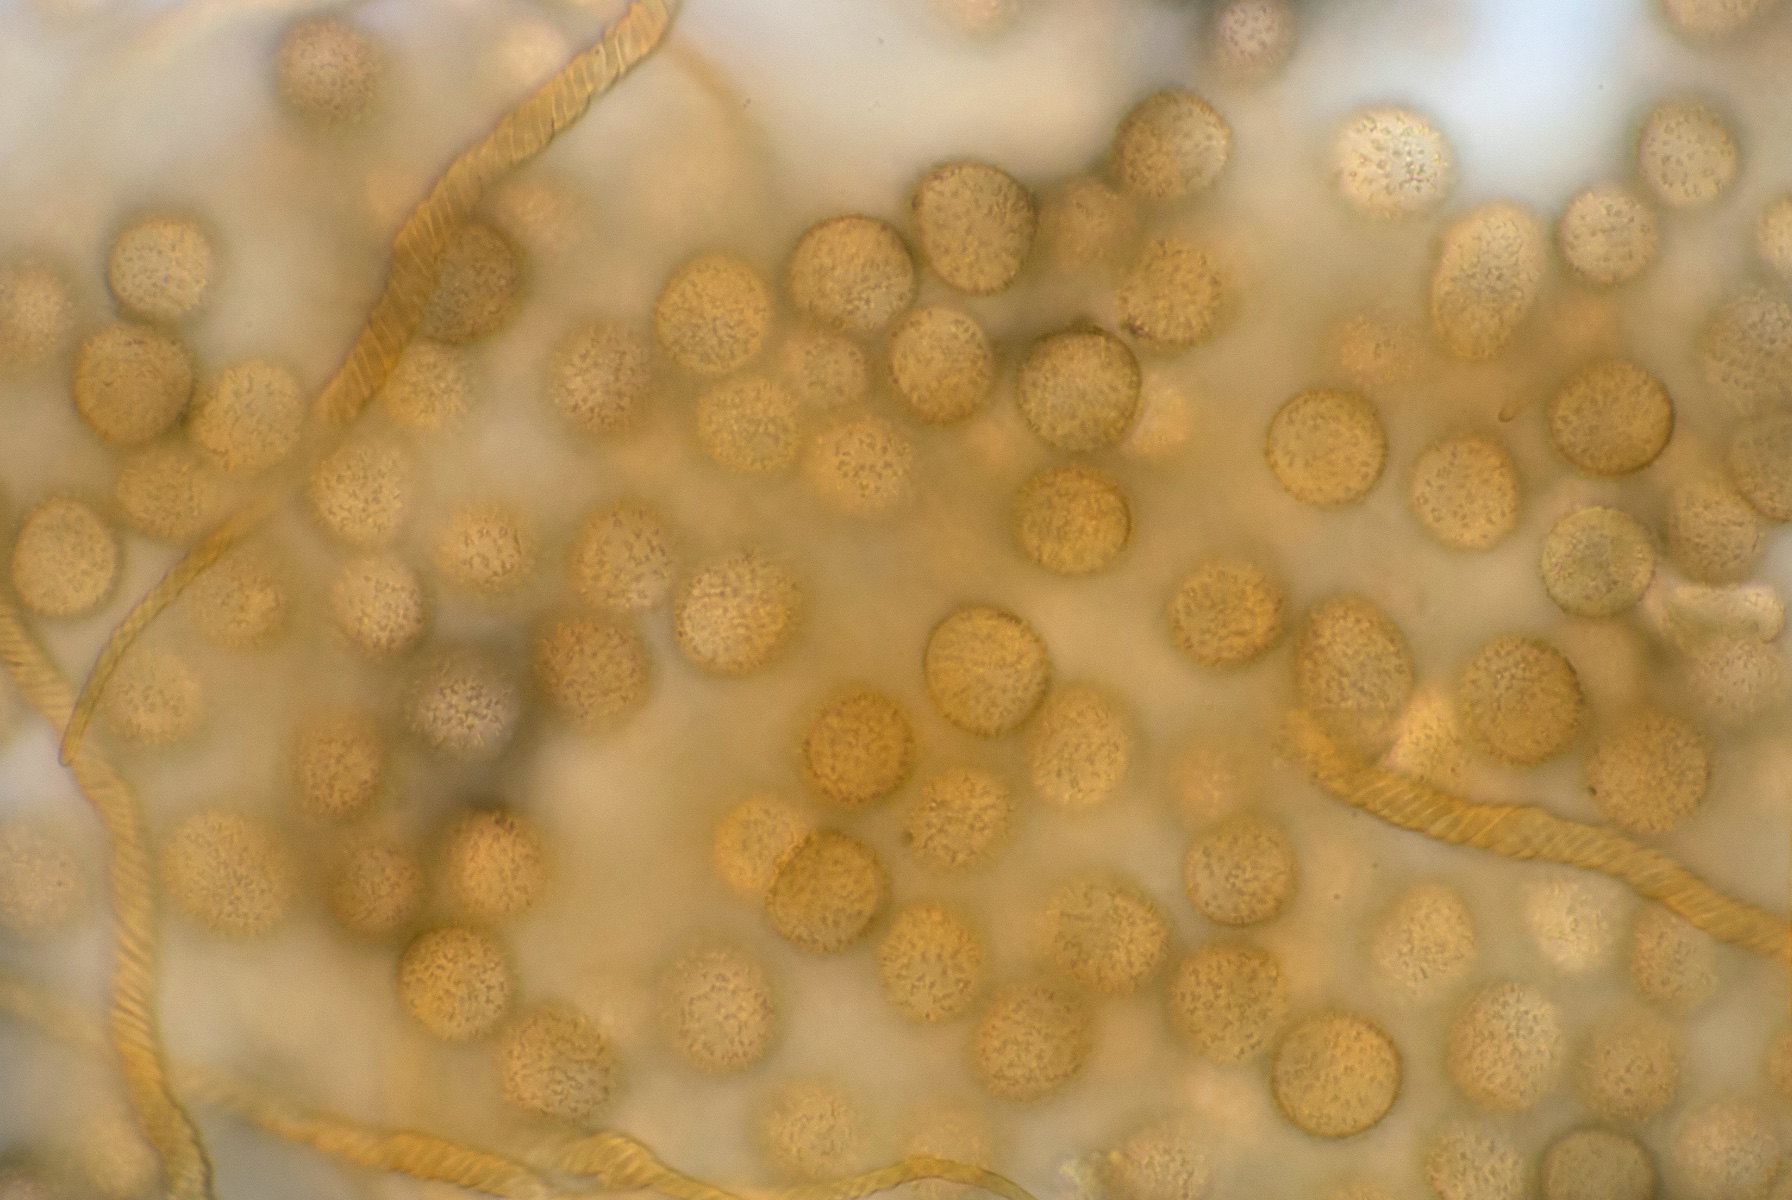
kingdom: Protozoa
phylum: Mycetozoa
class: Myxomycetes
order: Trichiales
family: Trichiaceae
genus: Trichia
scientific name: Trichia crateriformis
